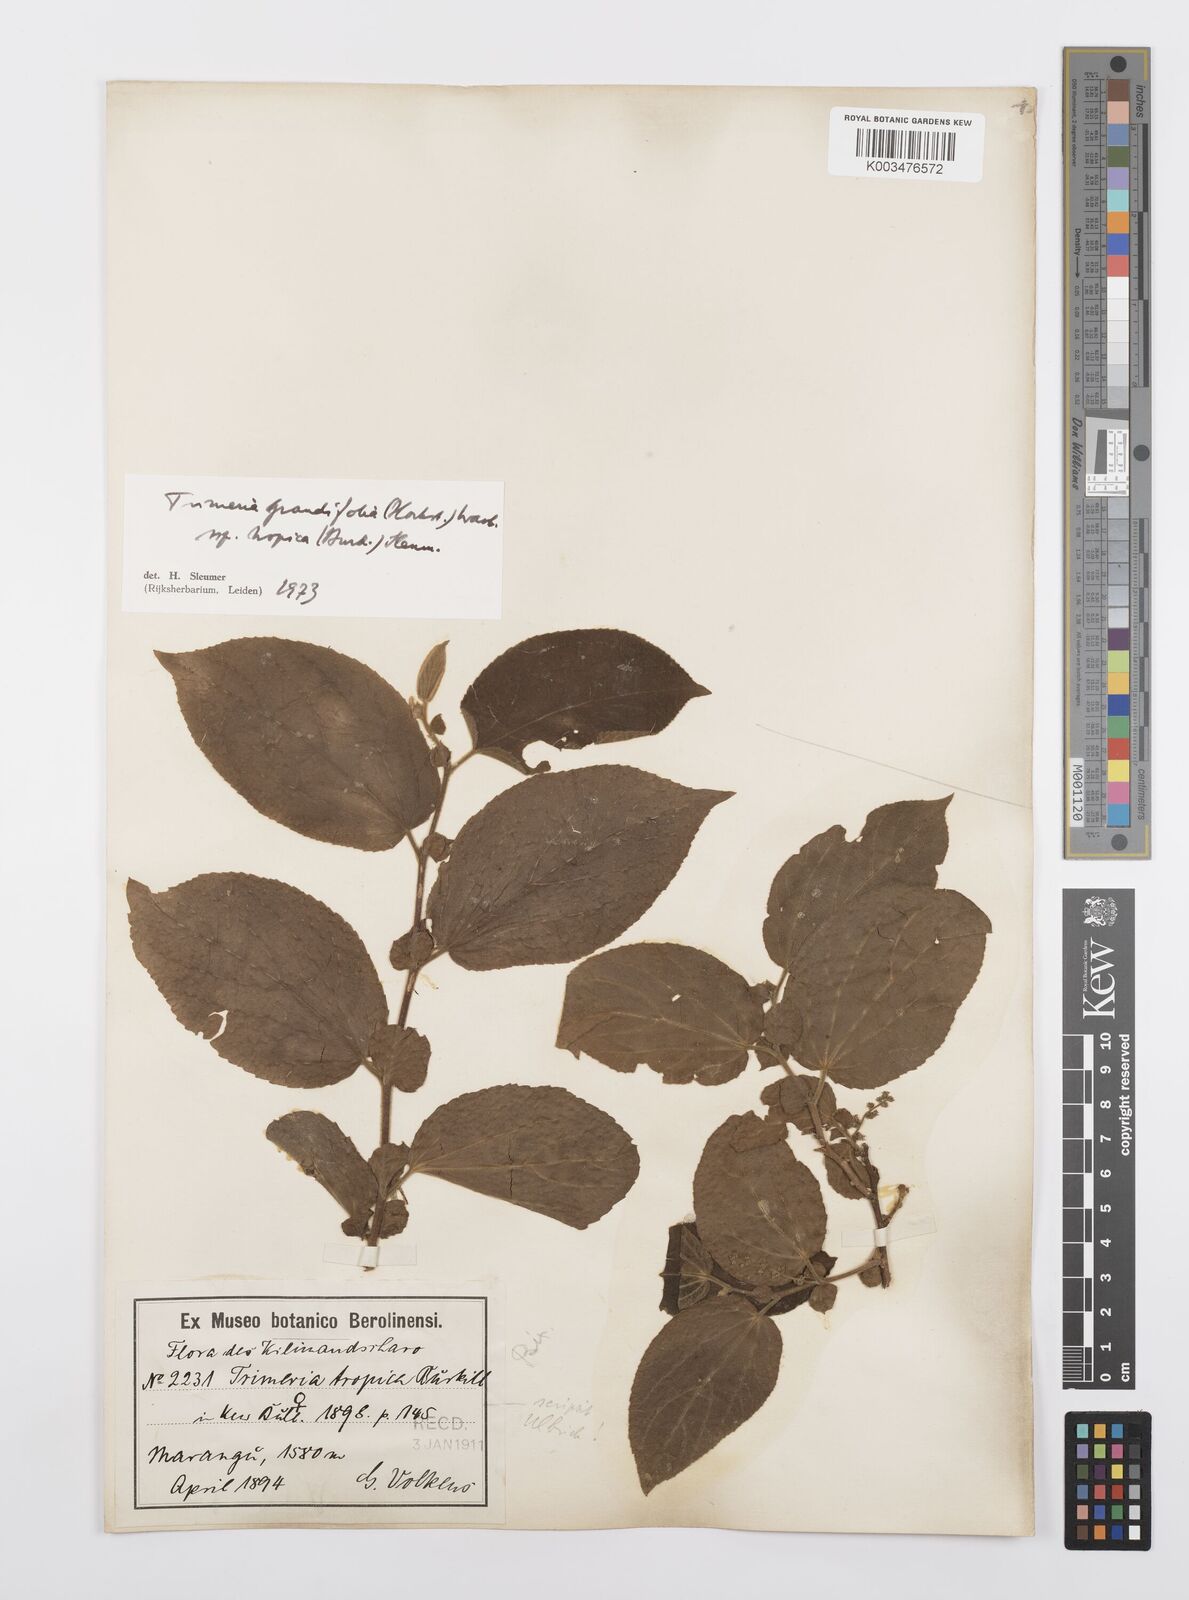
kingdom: Plantae
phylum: Tracheophyta
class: Magnoliopsida
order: Malpighiales
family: Salicaceae
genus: Trimeria
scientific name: Trimeria grandifolia
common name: Wild mulberry
